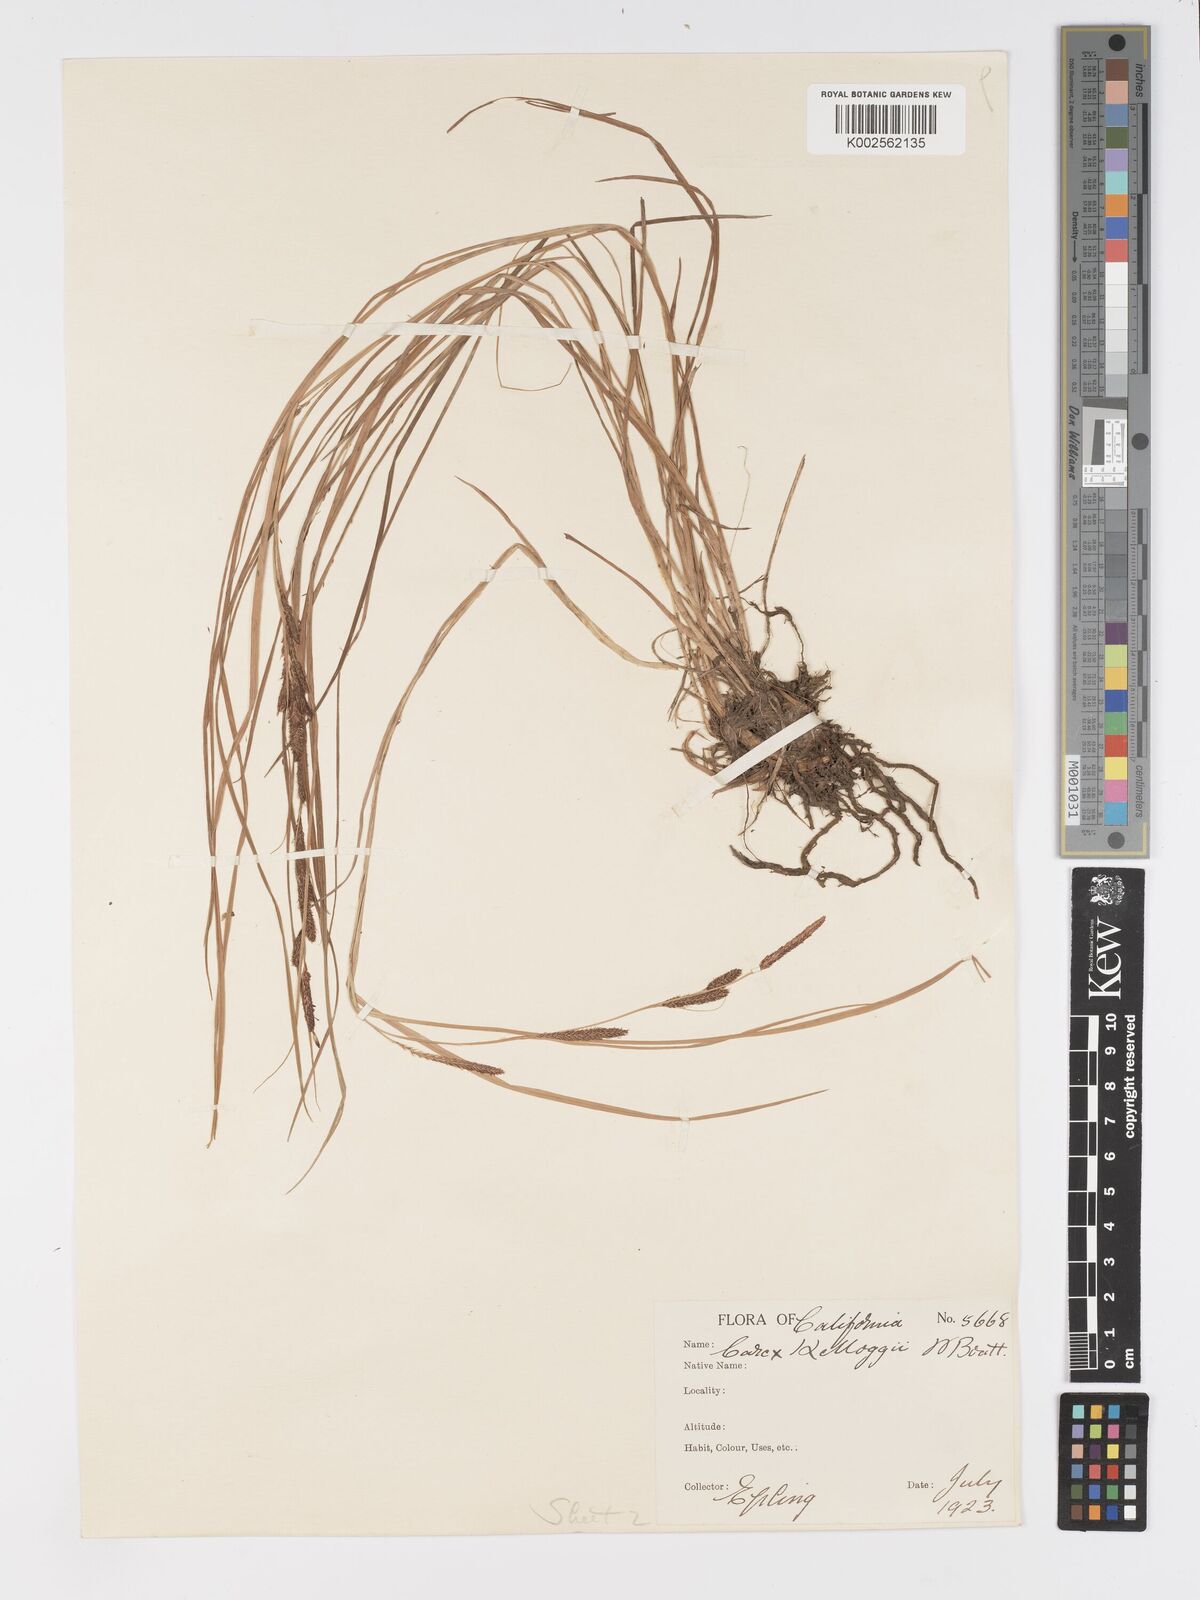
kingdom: Plantae
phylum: Tracheophyta
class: Liliopsida
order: Poales
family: Cyperaceae
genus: Carex
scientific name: Carex kelloggii
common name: Kellogg's sedge
